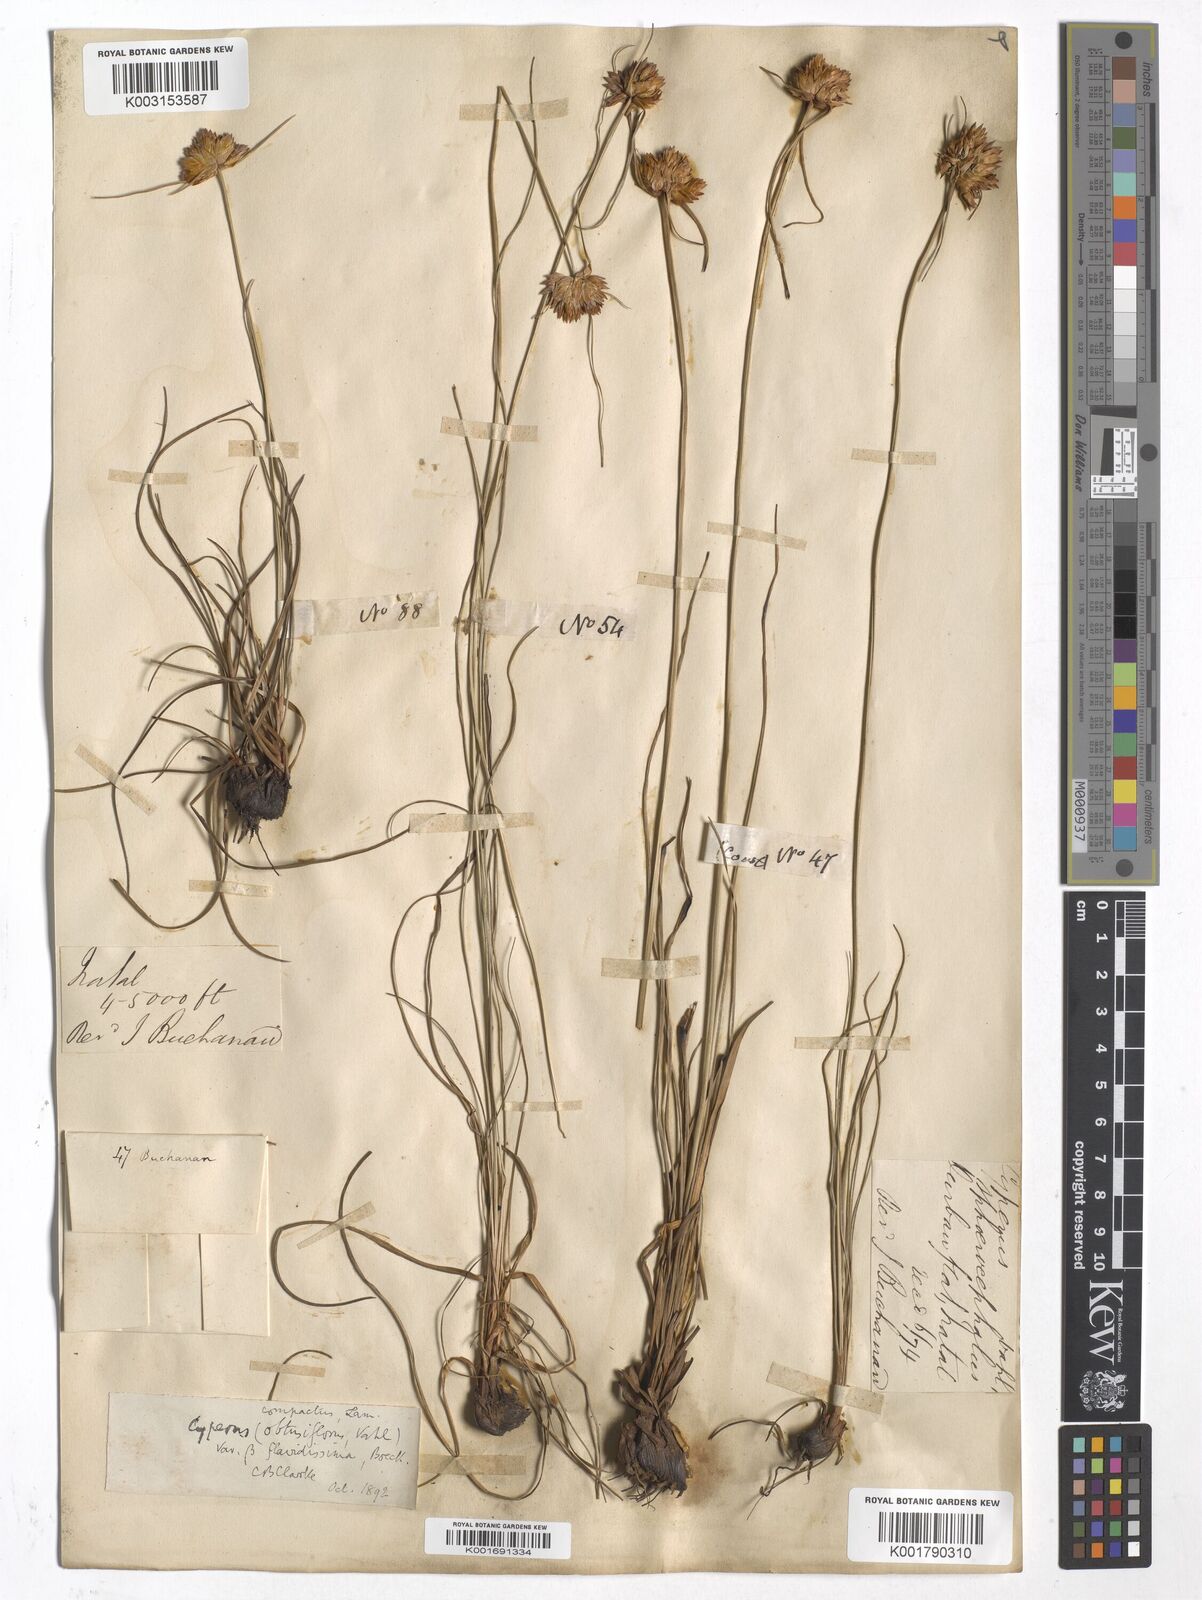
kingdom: Plantae
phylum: Tracheophyta
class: Liliopsida
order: Poales
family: Cyperaceae
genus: Cyperus
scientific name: Cyperus niveus
